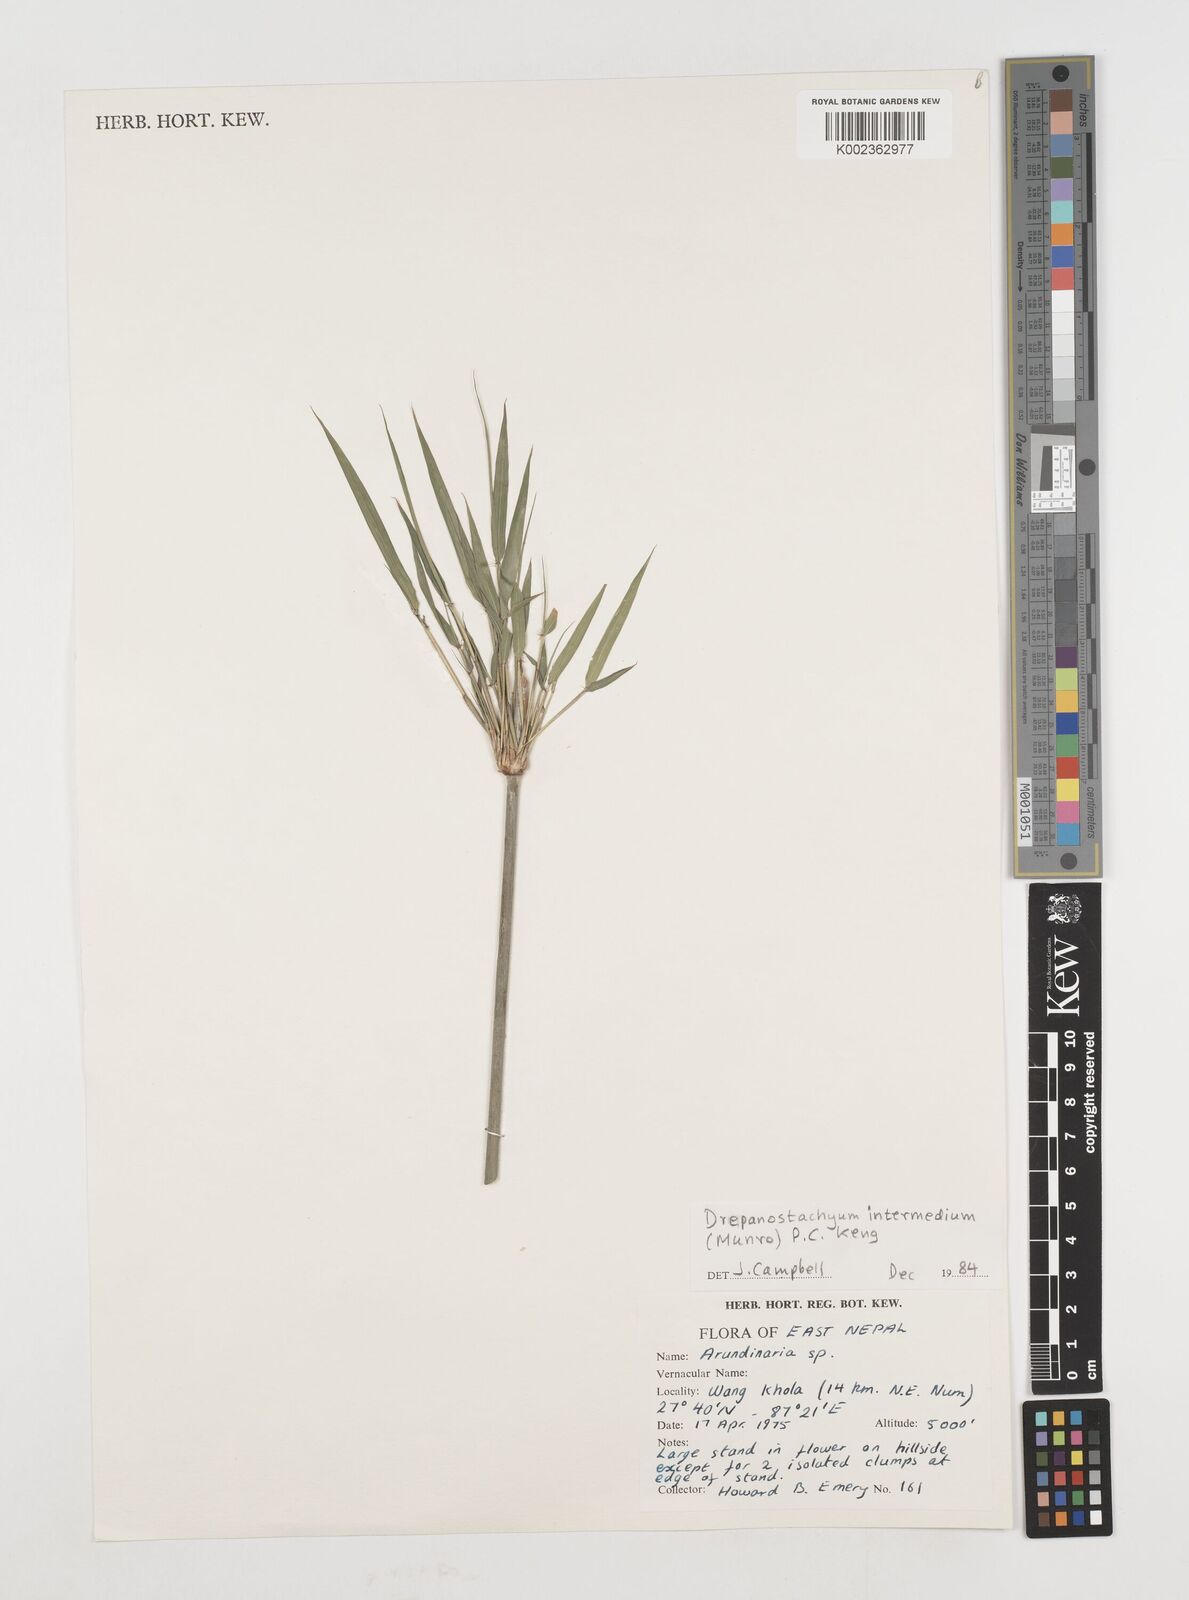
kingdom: Plantae
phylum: Tracheophyta
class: Liliopsida
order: Poales
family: Poaceae
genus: Drepanostachyum
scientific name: Drepanostachyum intermedium
